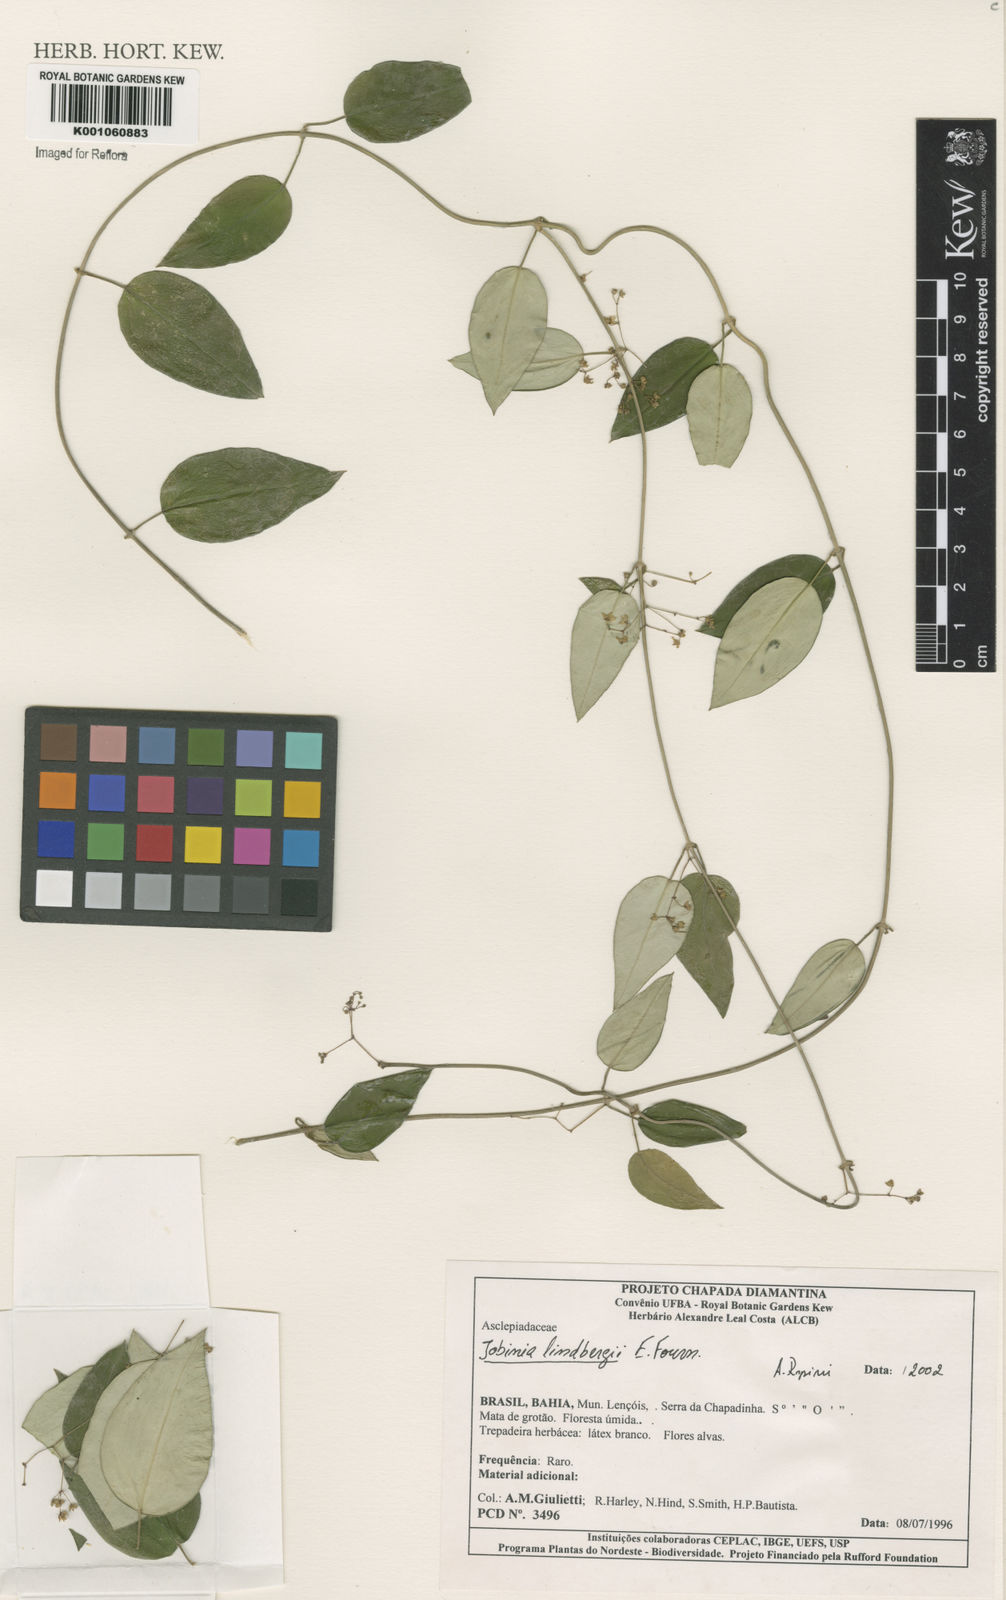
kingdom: Plantae
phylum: Tracheophyta
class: Magnoliopsida
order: Gentianales
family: Apocynaceae
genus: Jobinia
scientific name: Jobinia lindbergii
